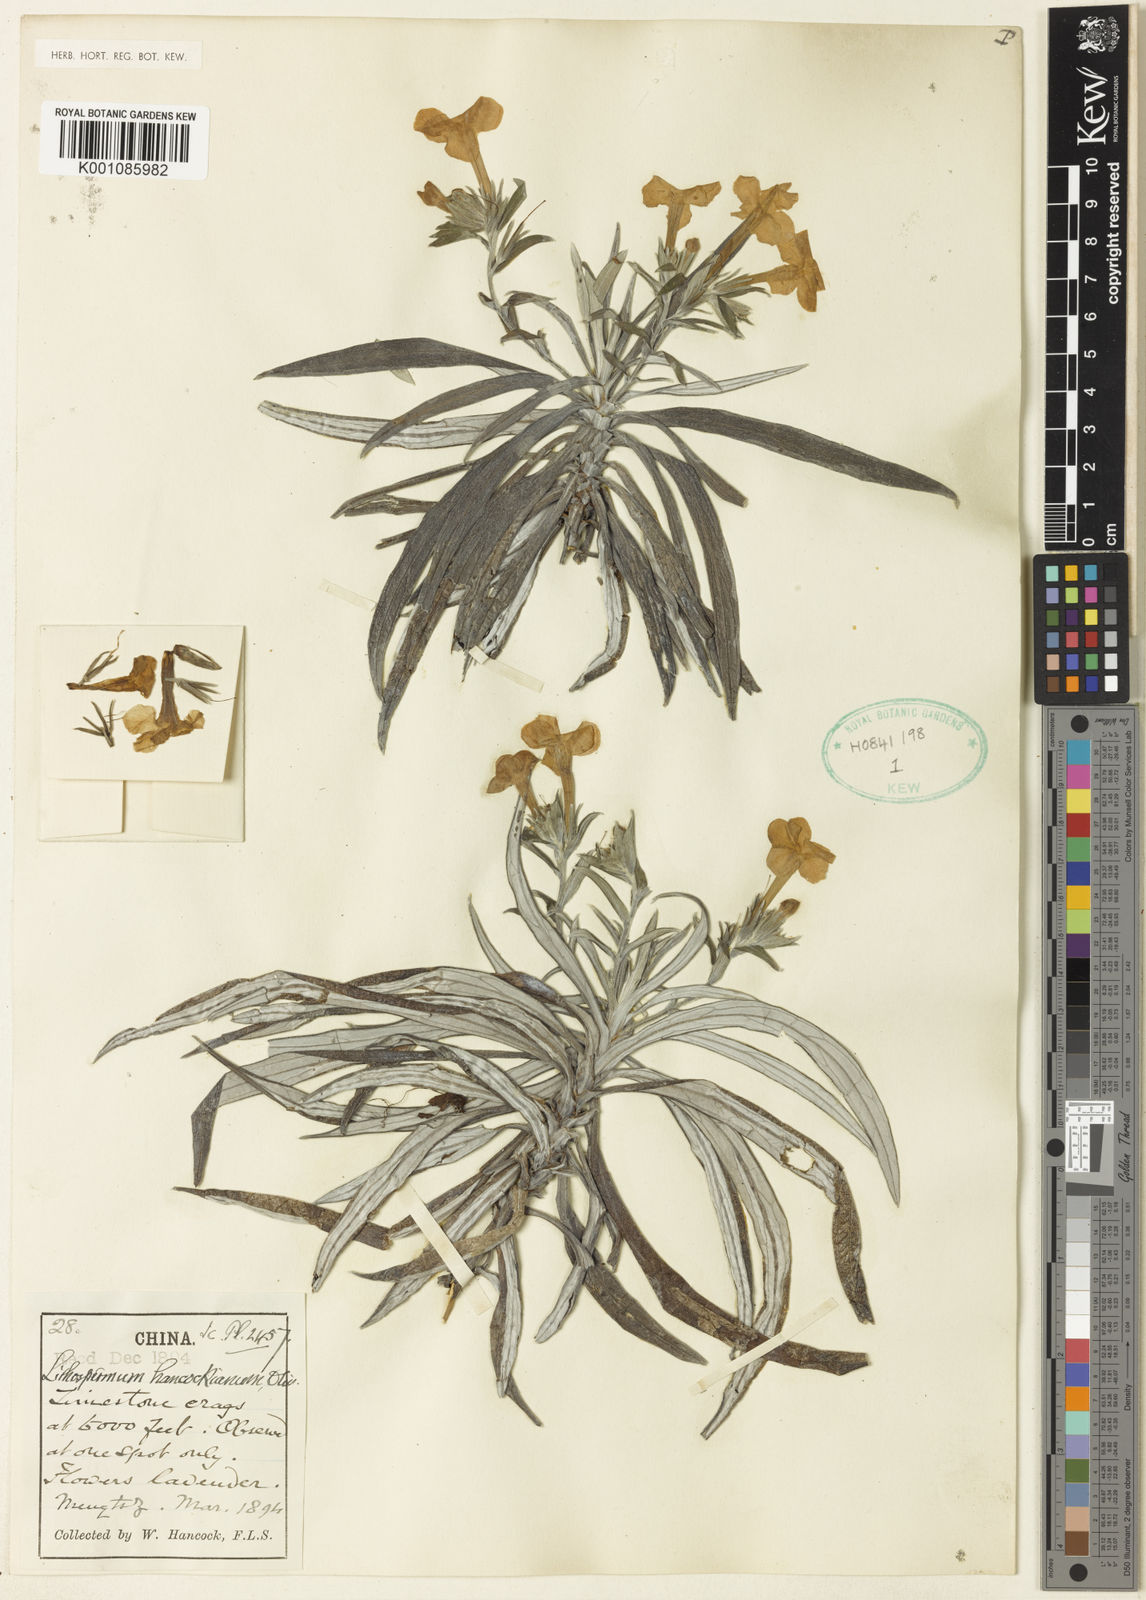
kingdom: Plantae
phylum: Tracheophyta
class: Magnoliopsida
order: Boraginales
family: Boraginaceae
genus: Lithospermum
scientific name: Lithospermum officinale
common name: Common gromwell
